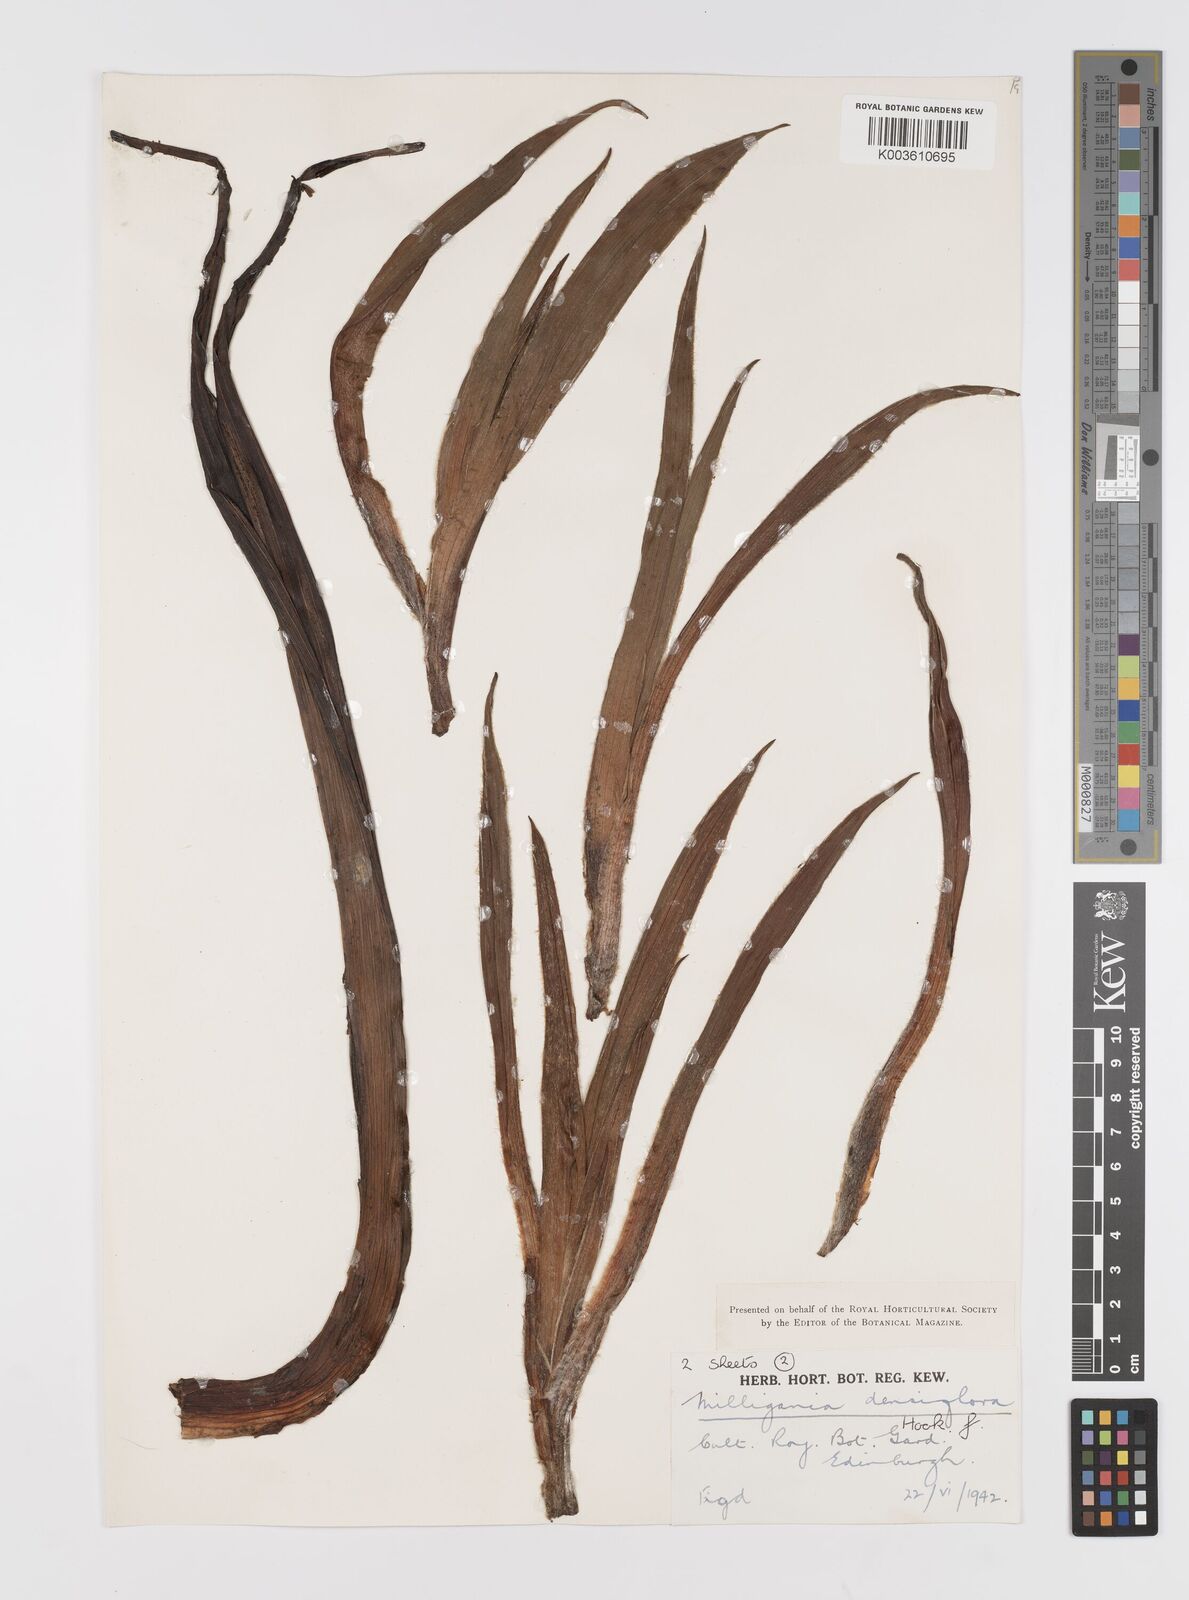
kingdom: Plantae
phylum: Tracheophyta
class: Liliopsida
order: Asparagales
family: Asteliaceae
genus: Milligania
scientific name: Milligania densiflora
